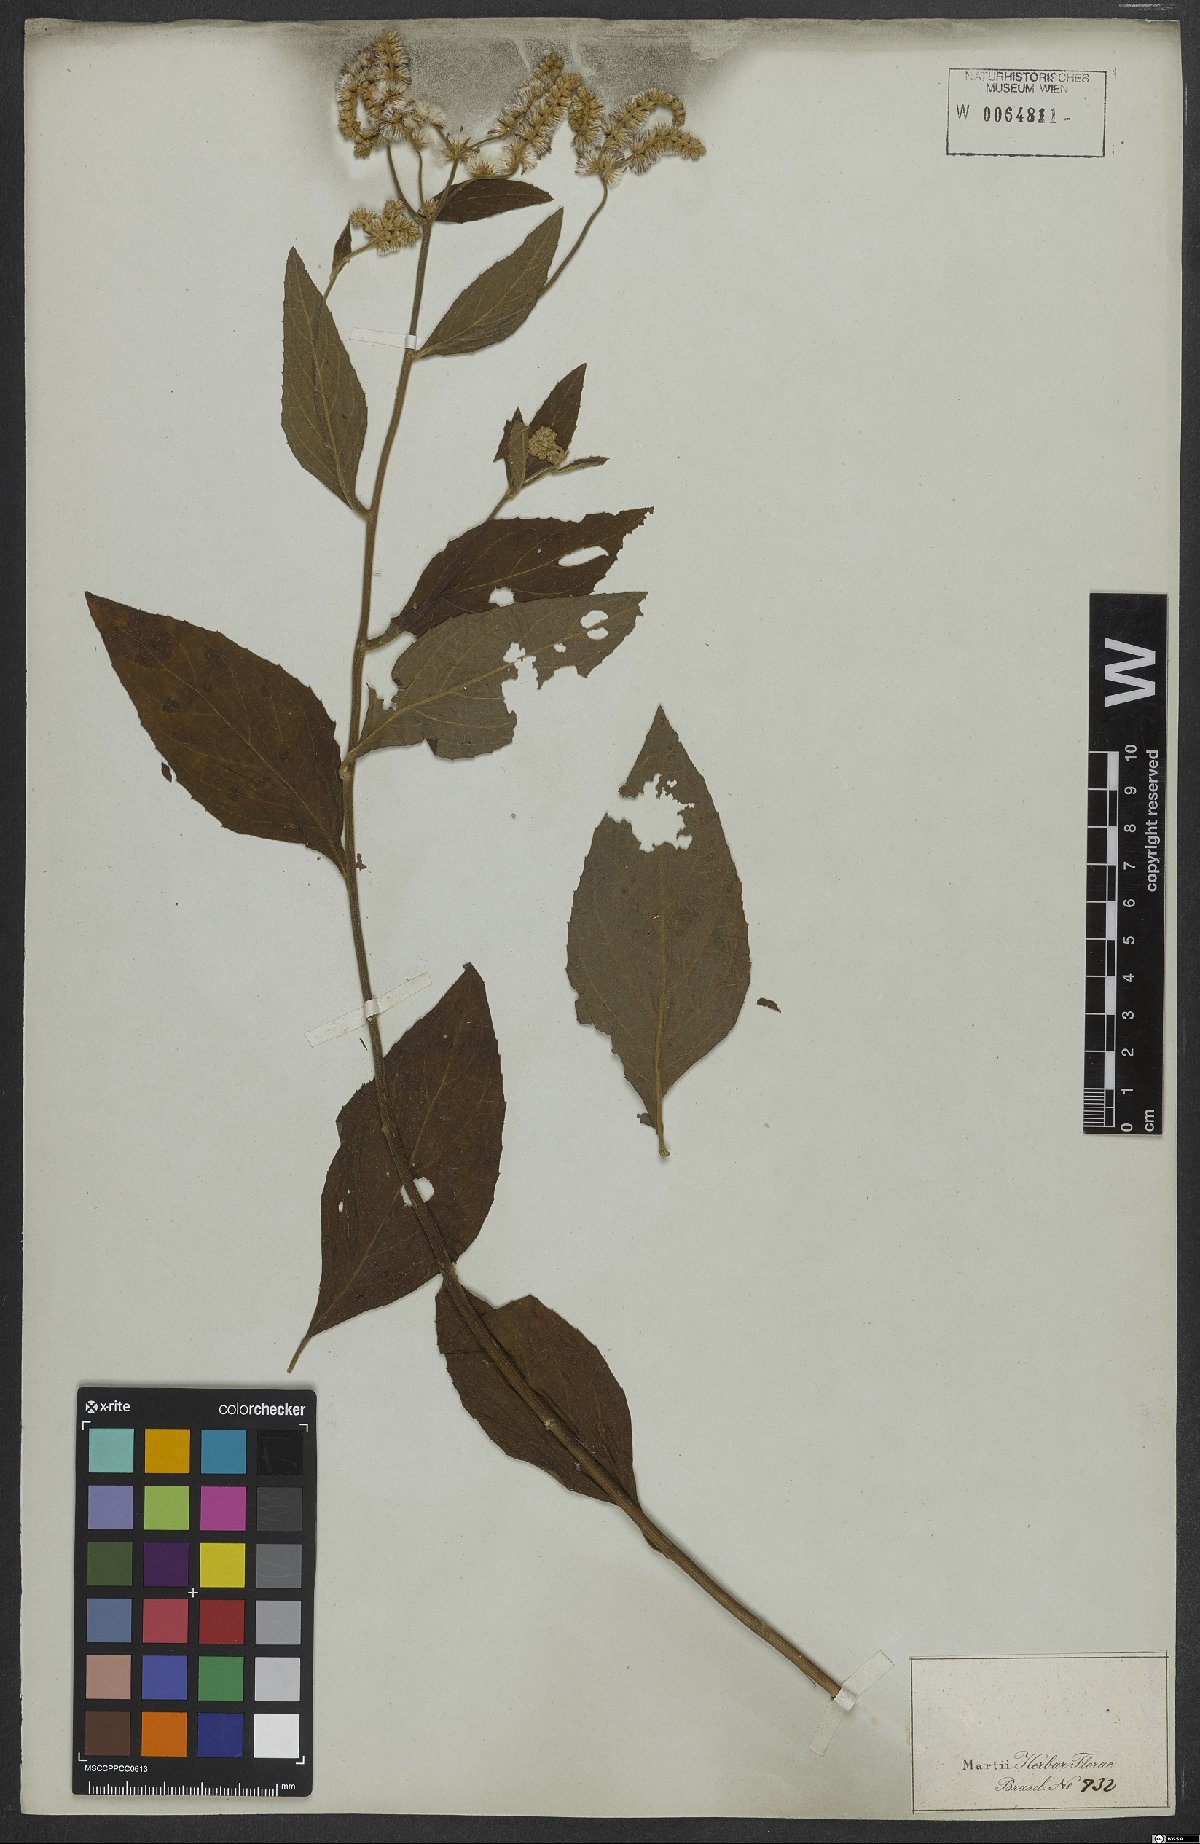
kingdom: Plantae
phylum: Tracheophyta
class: Magnoliopsida
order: Asterales
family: Asteraceae
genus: Cyrtocymura
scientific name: Cyrtocymura scorpioides
